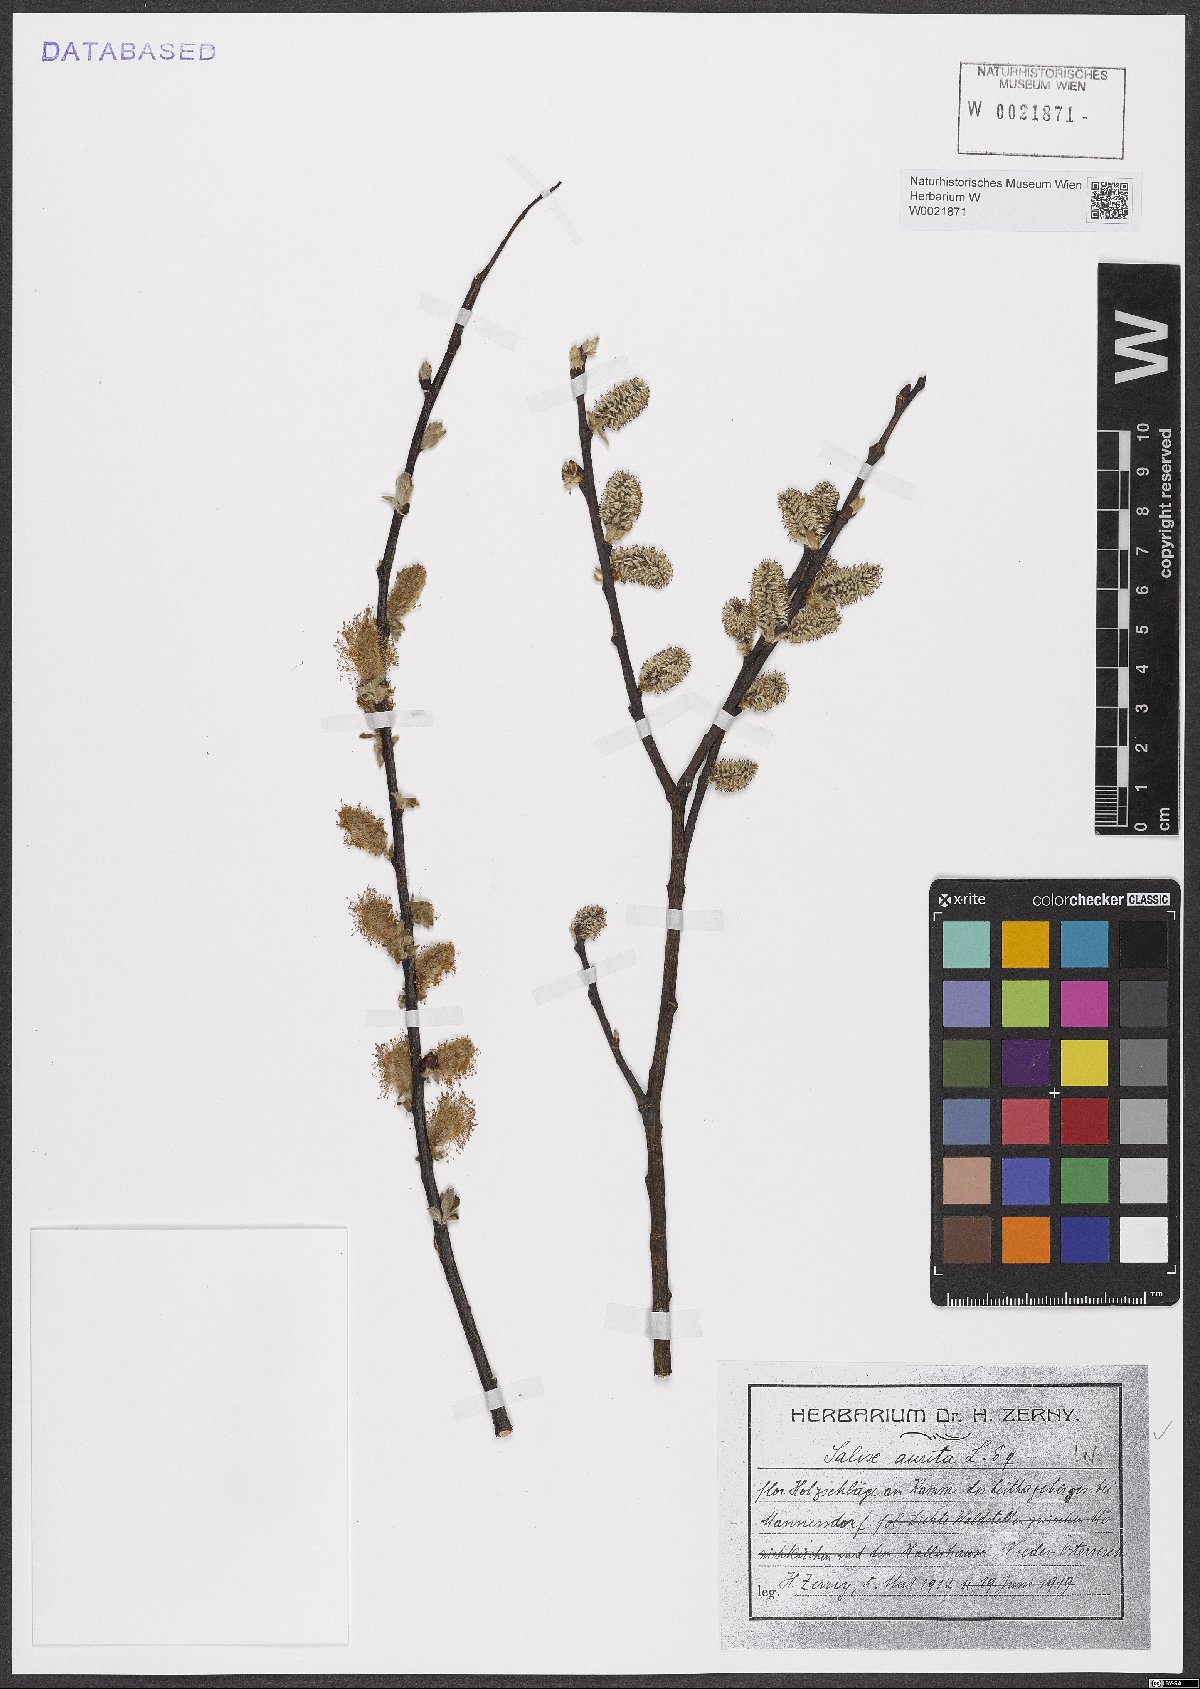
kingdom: Plantae
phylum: Tracheophyta
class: Magnoliopsida
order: Malpighiales
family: Salicaceae
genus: Salix
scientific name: Salix aurita
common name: Eared willow
